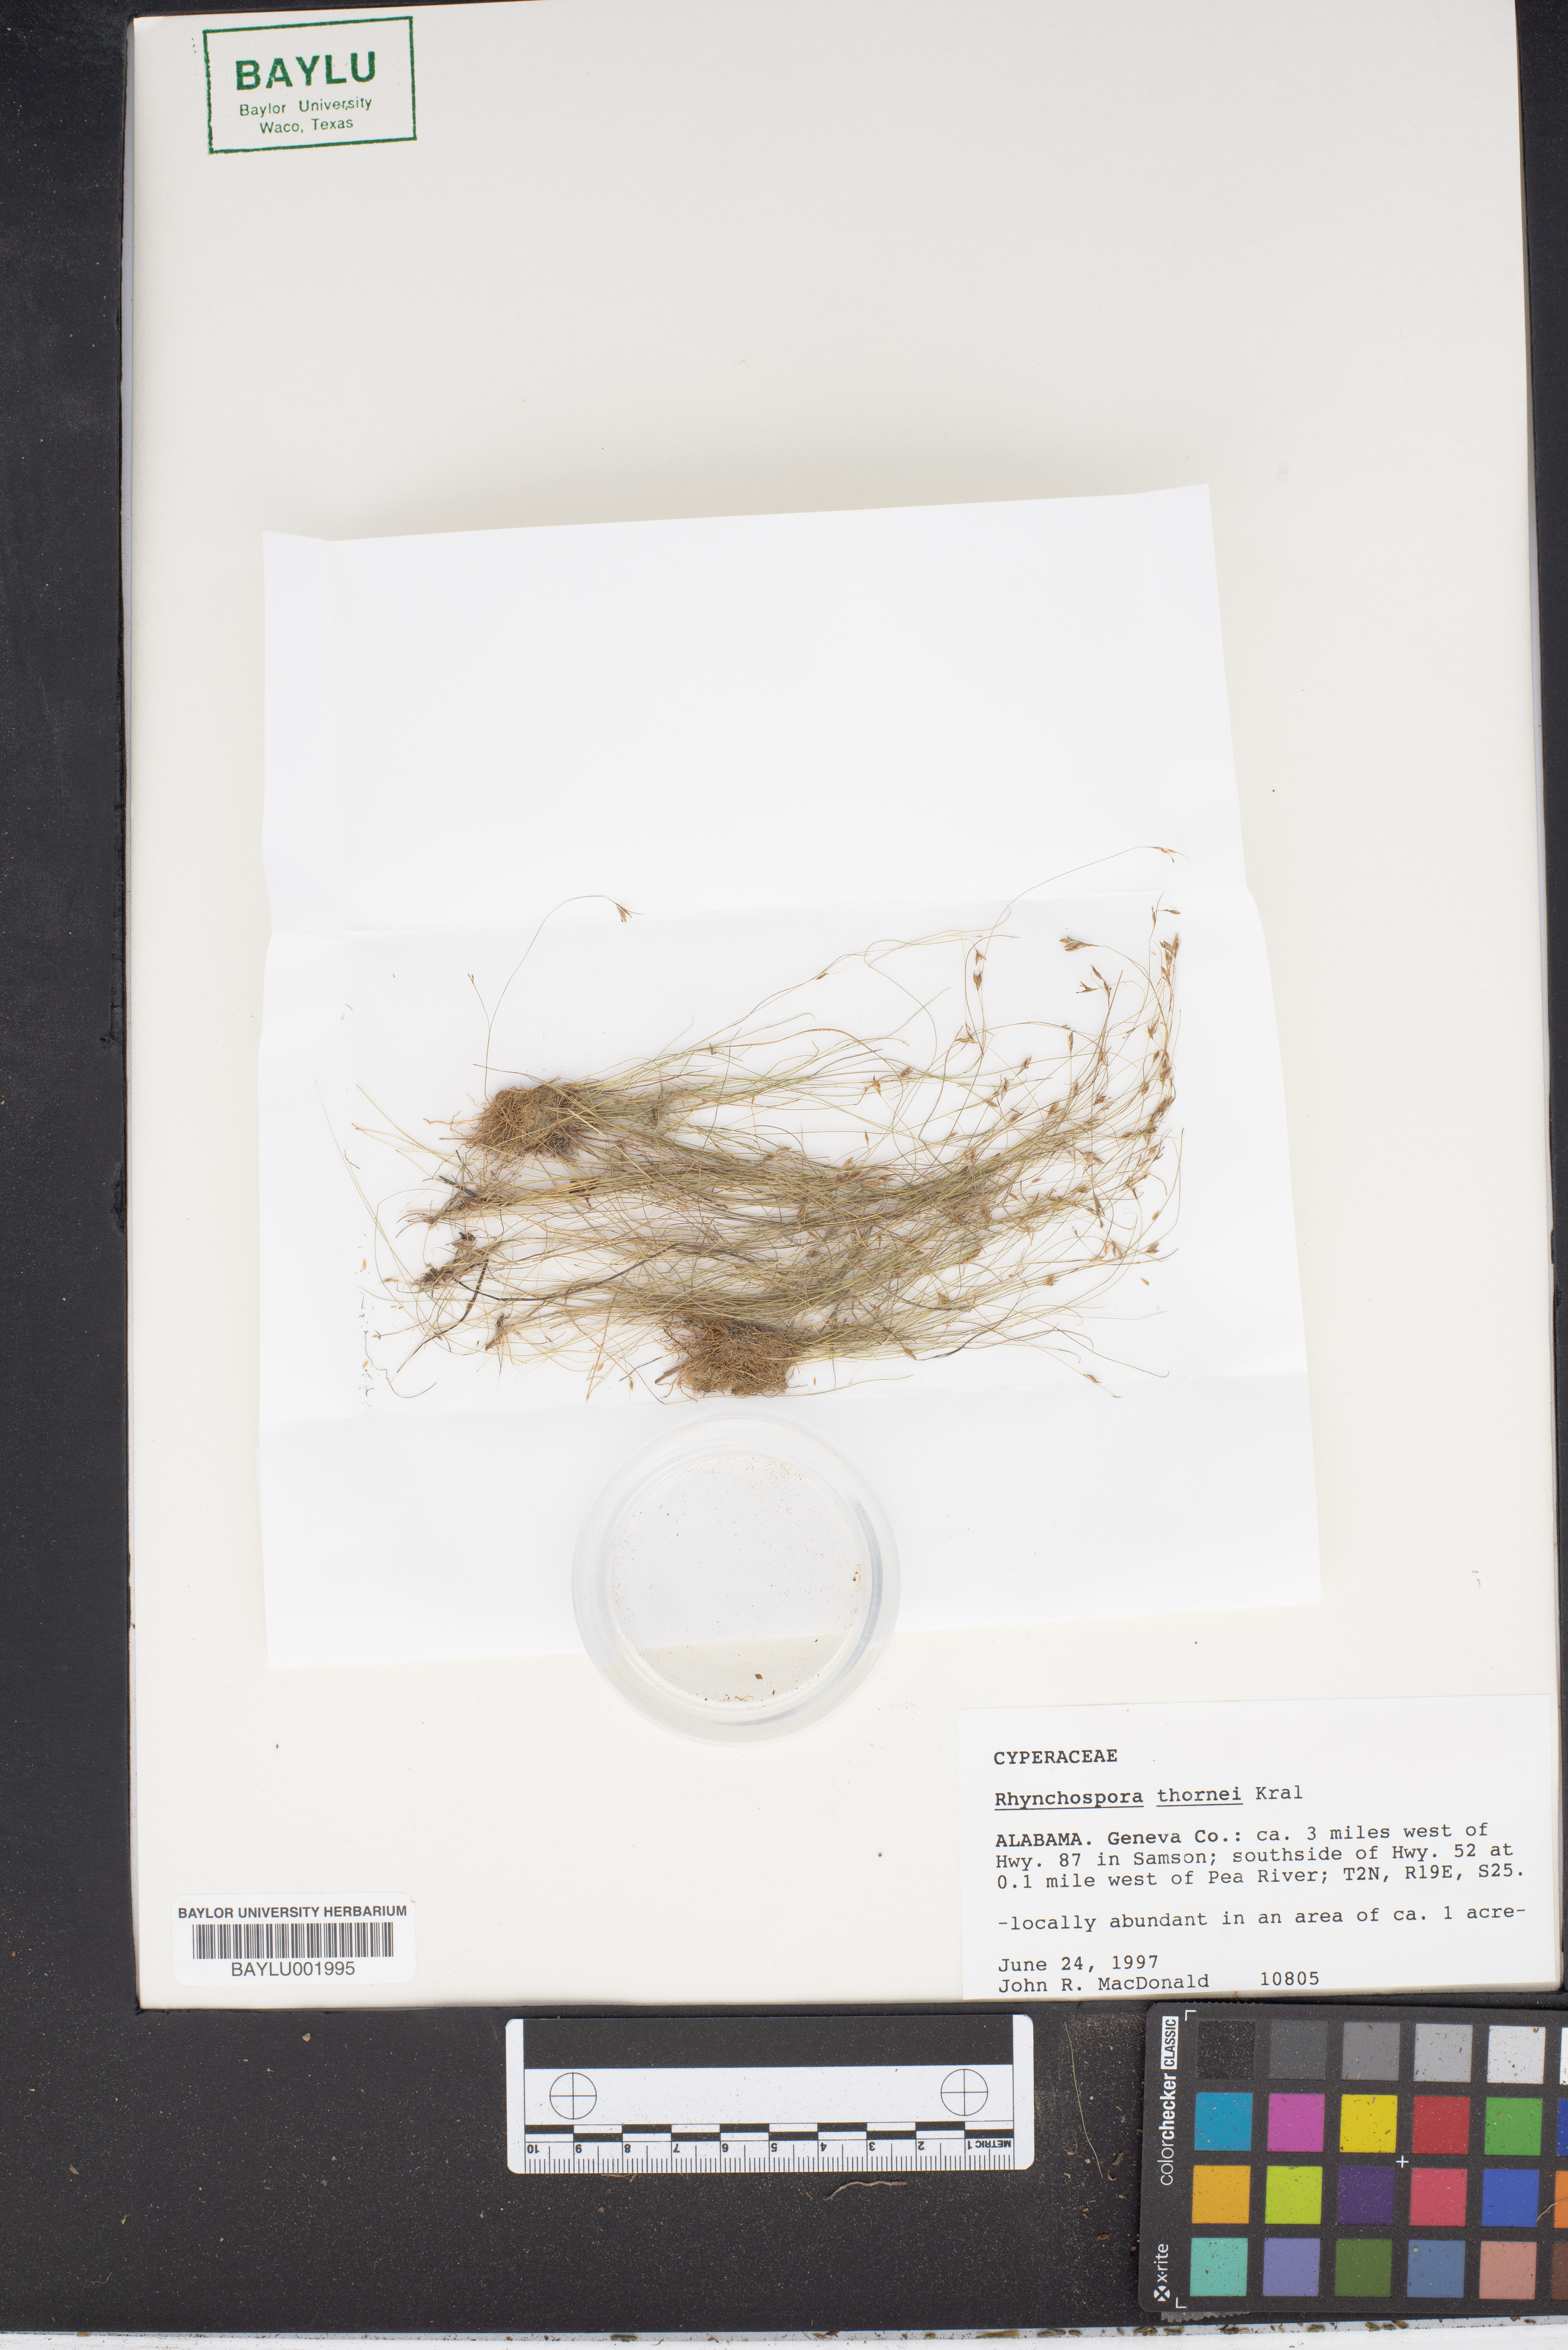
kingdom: Plantae
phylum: Tracheophyta
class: Liliopsida
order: Poales
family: Cyperaceae
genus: Rhynchospora
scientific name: Rhynchospora thornei
